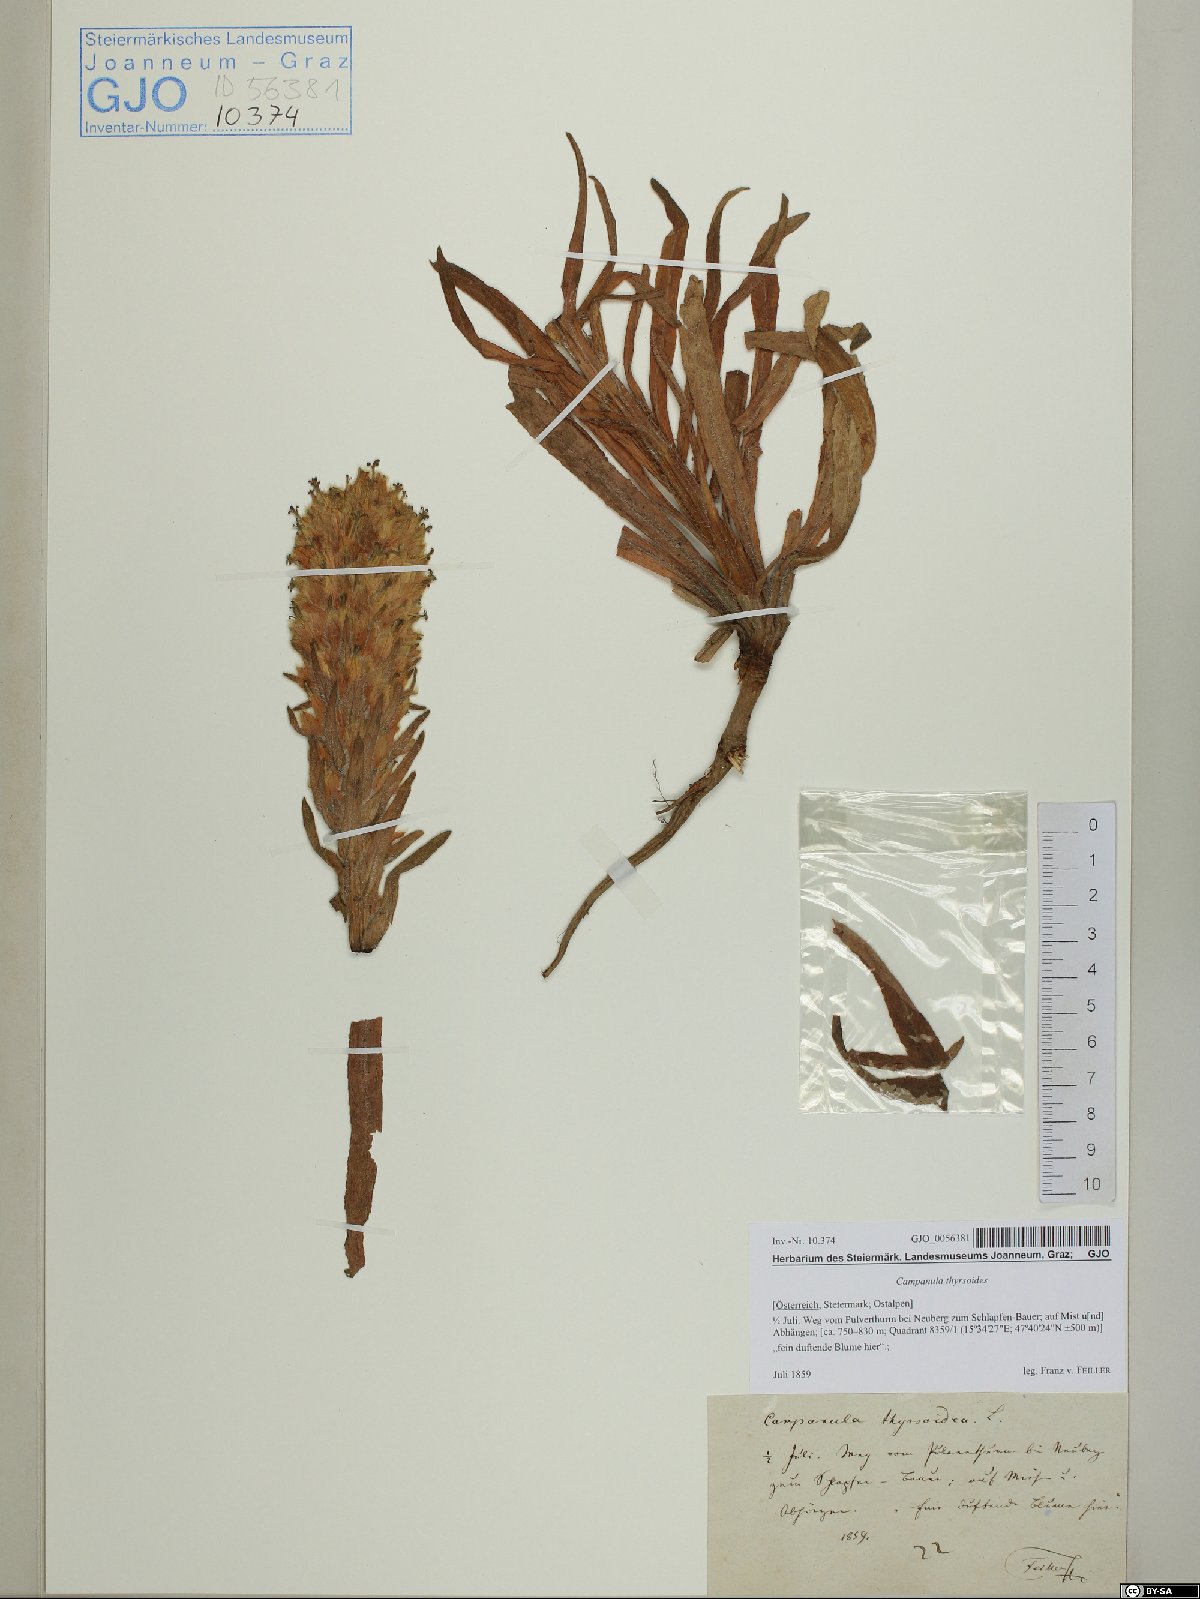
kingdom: Plantae
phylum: Tracheophyta
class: Magnoliopsida
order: Asterales
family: Campanulaceae
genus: Campanula
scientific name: Campanula thyrsoides
